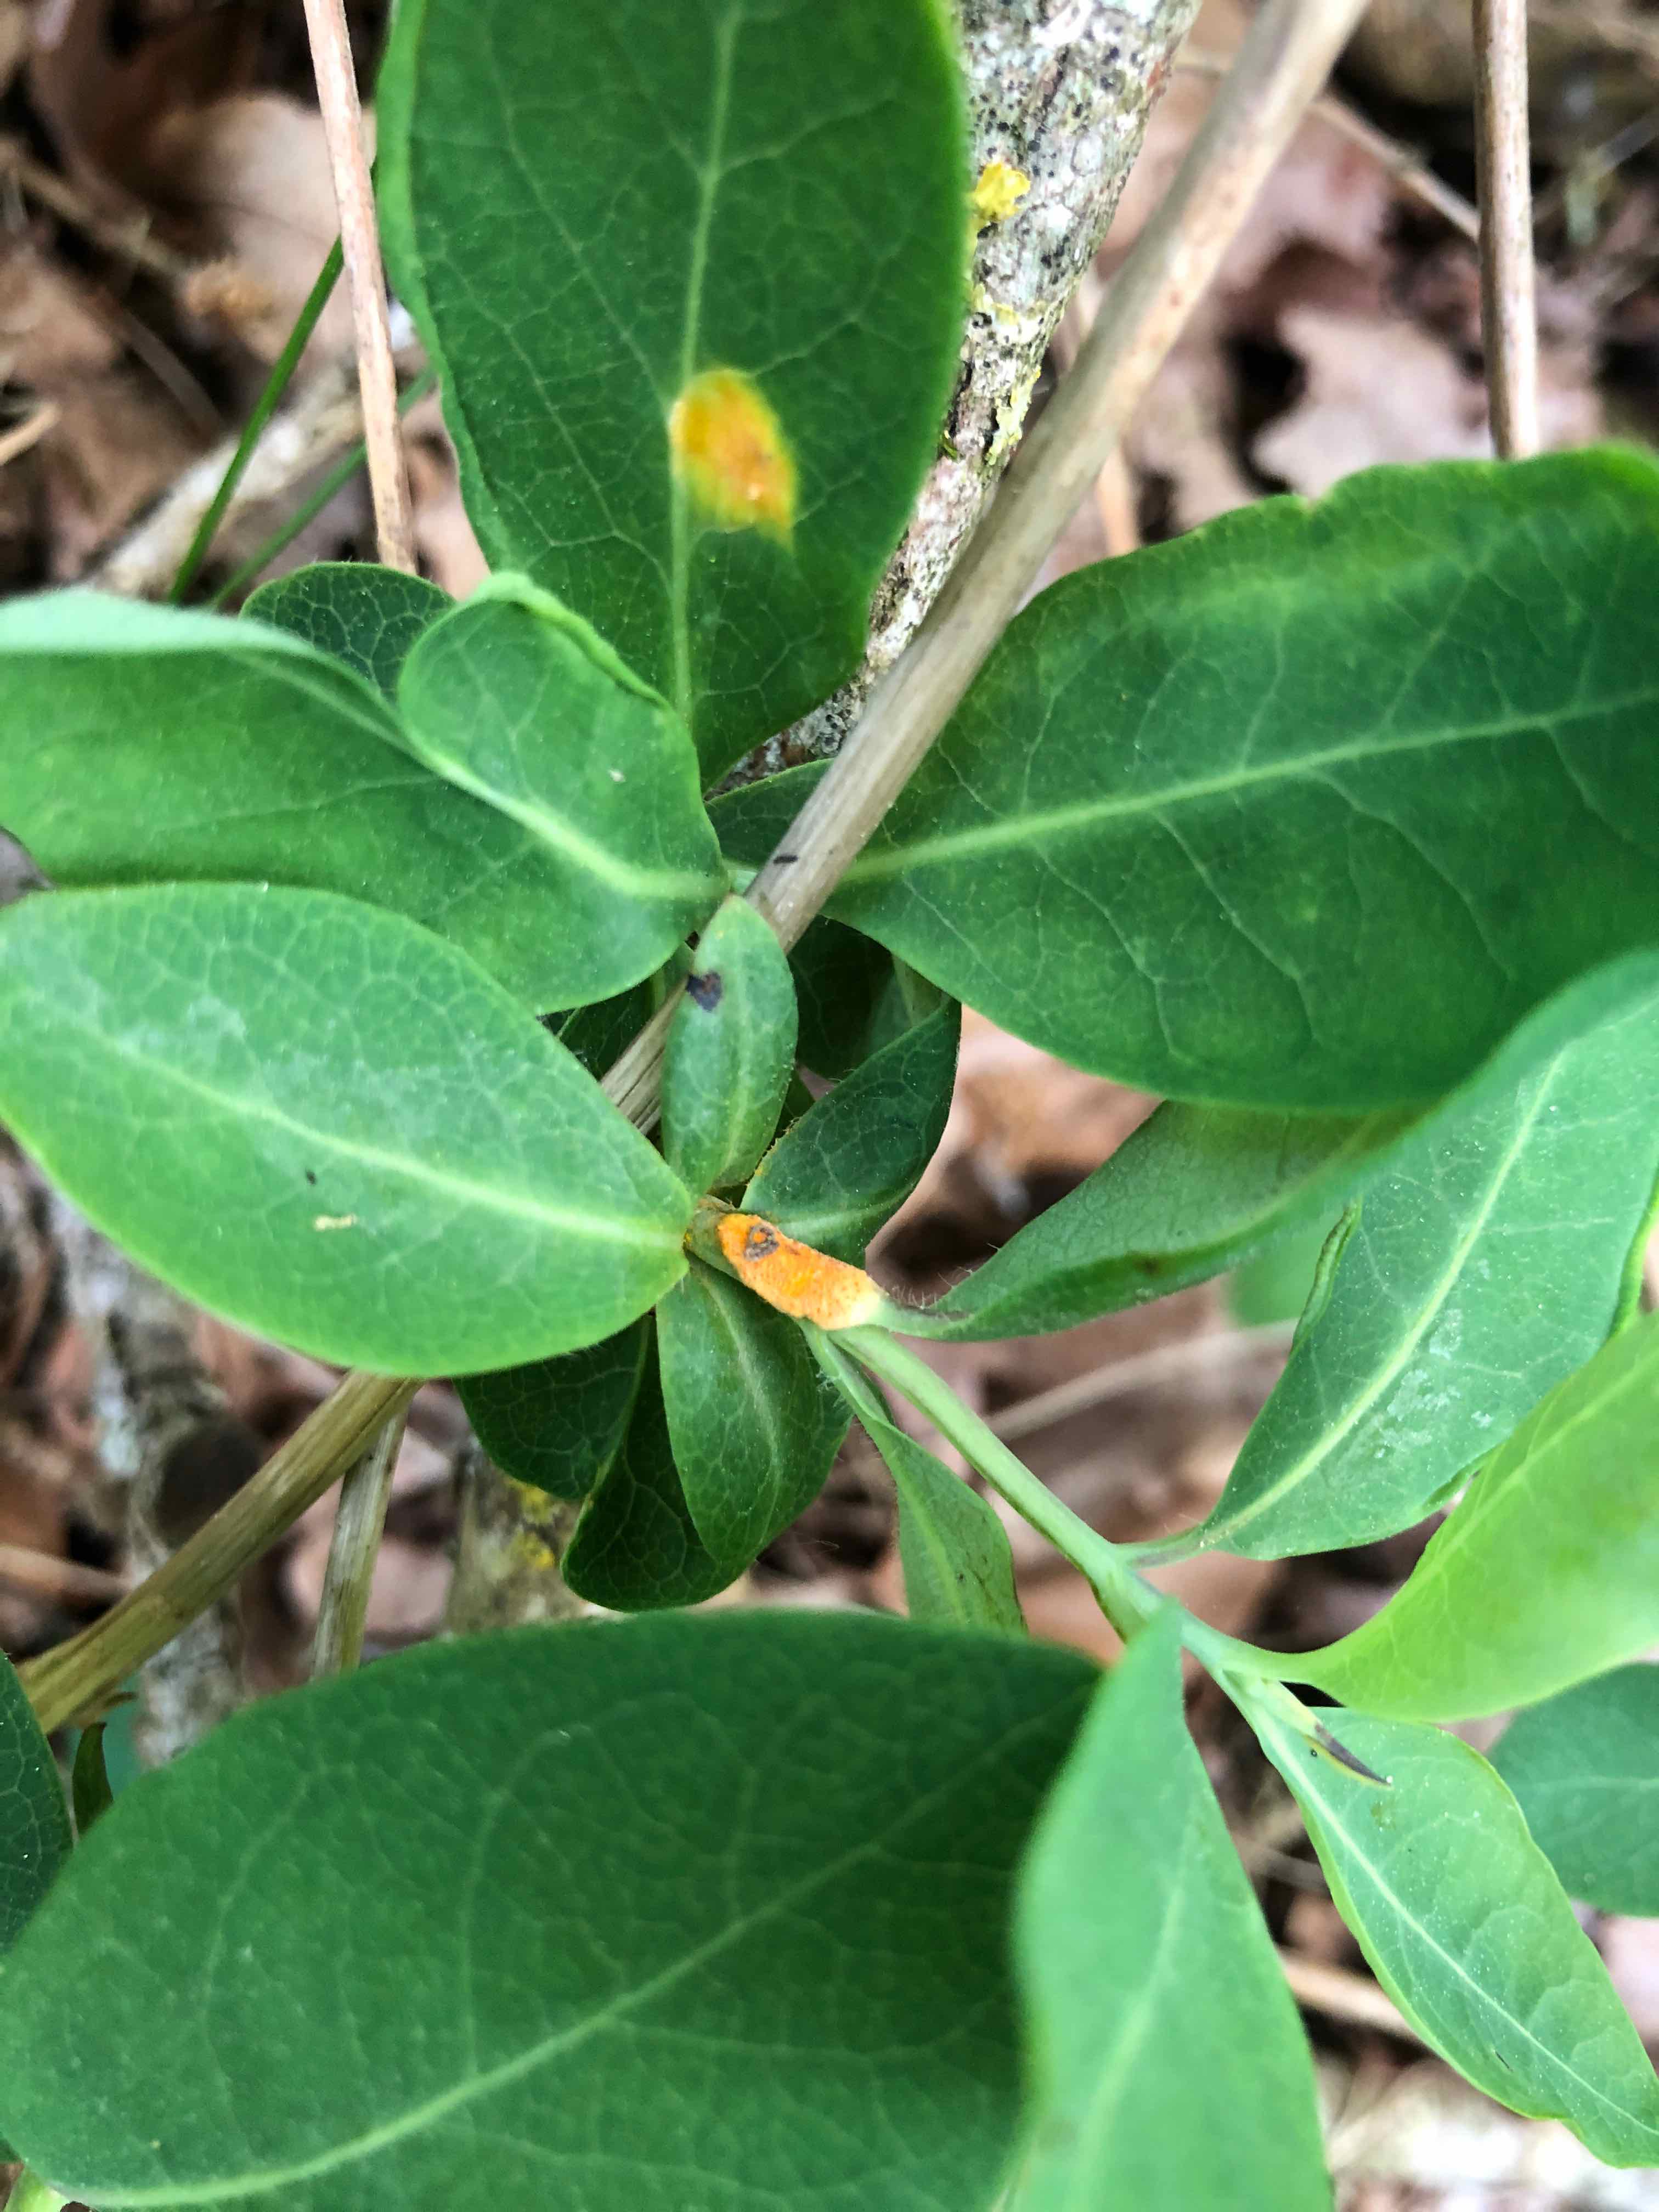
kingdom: Fungi
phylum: Basidiomycota
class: Pucciniomycetes
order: Pucciniales
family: Pucciniaceae
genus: Puccinia
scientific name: Puccinia festucae
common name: gedeblad-tvecellerust
